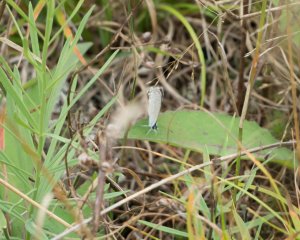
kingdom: Animalia
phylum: Arthropoda
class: Insecta
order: Lepidoptera
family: Lycaenidae
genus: Elkalyce
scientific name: Elkalyce comyntas
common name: Eastern Tailed-Blue
